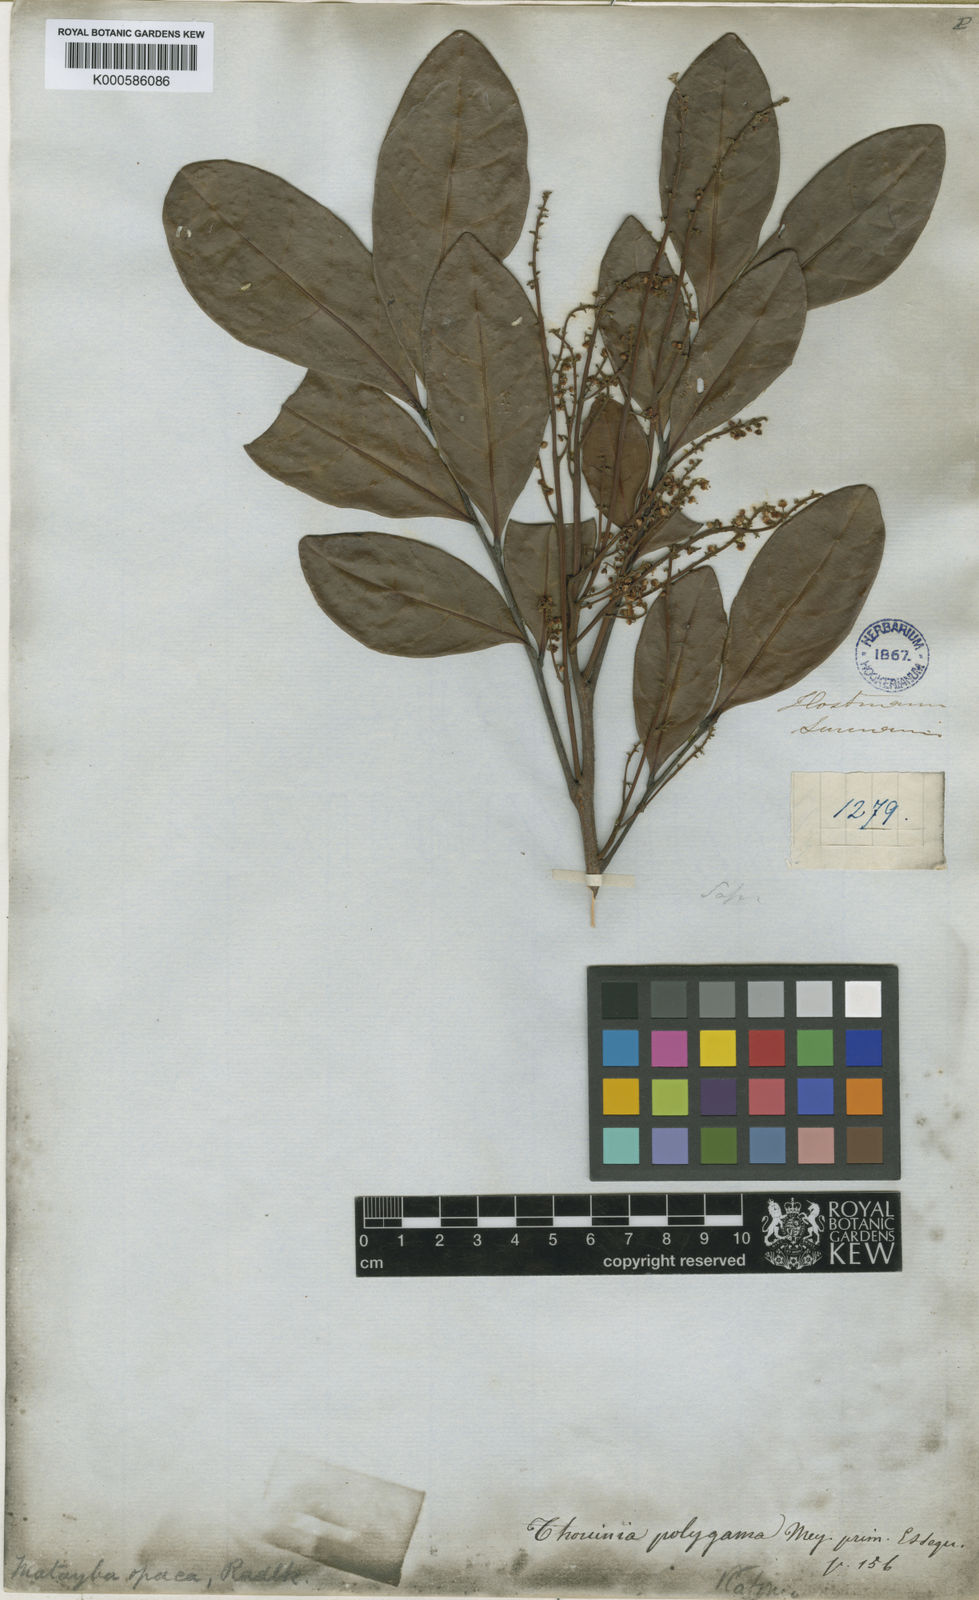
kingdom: Plantae
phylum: Tracheophyta
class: Magnoliopsida
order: Sapindales
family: Sapindaceae
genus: Matayba
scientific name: Matayba opaca
